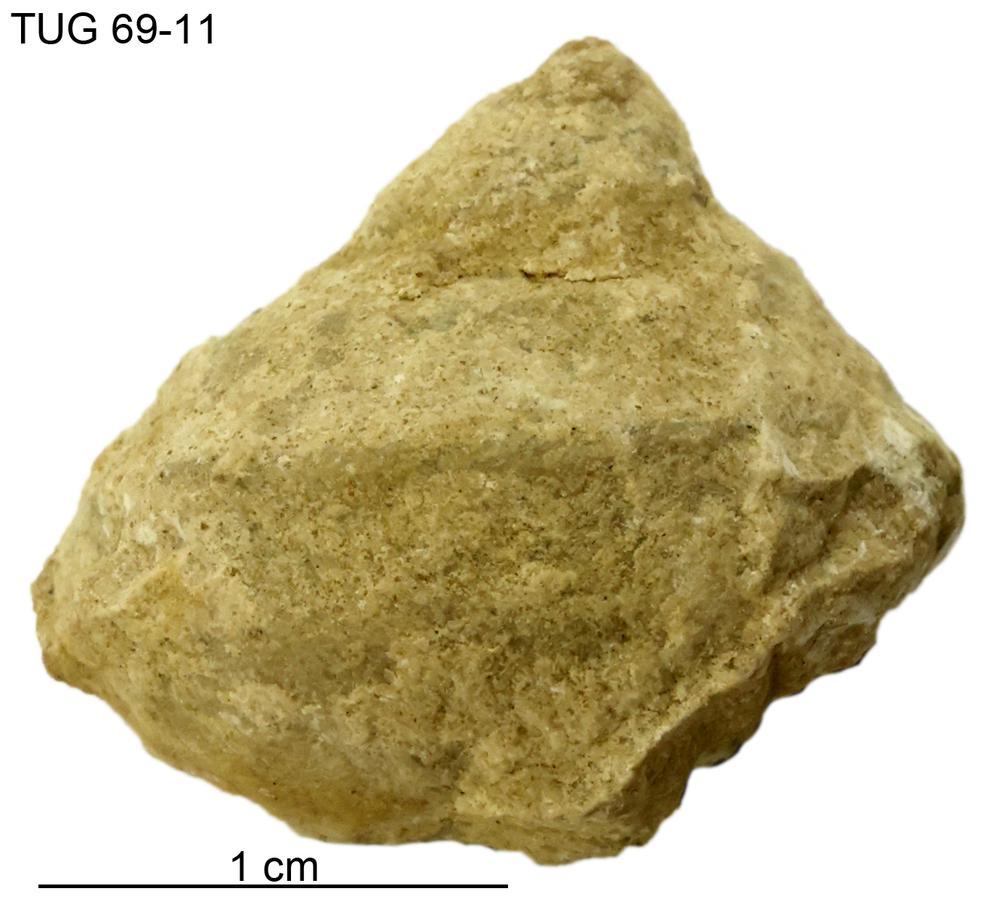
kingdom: Animalia
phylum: Mollusca
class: Gastropoda
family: Lophospiridae
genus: Ruedemannia
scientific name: Ruedemannia Worthenia borkholmiensis
